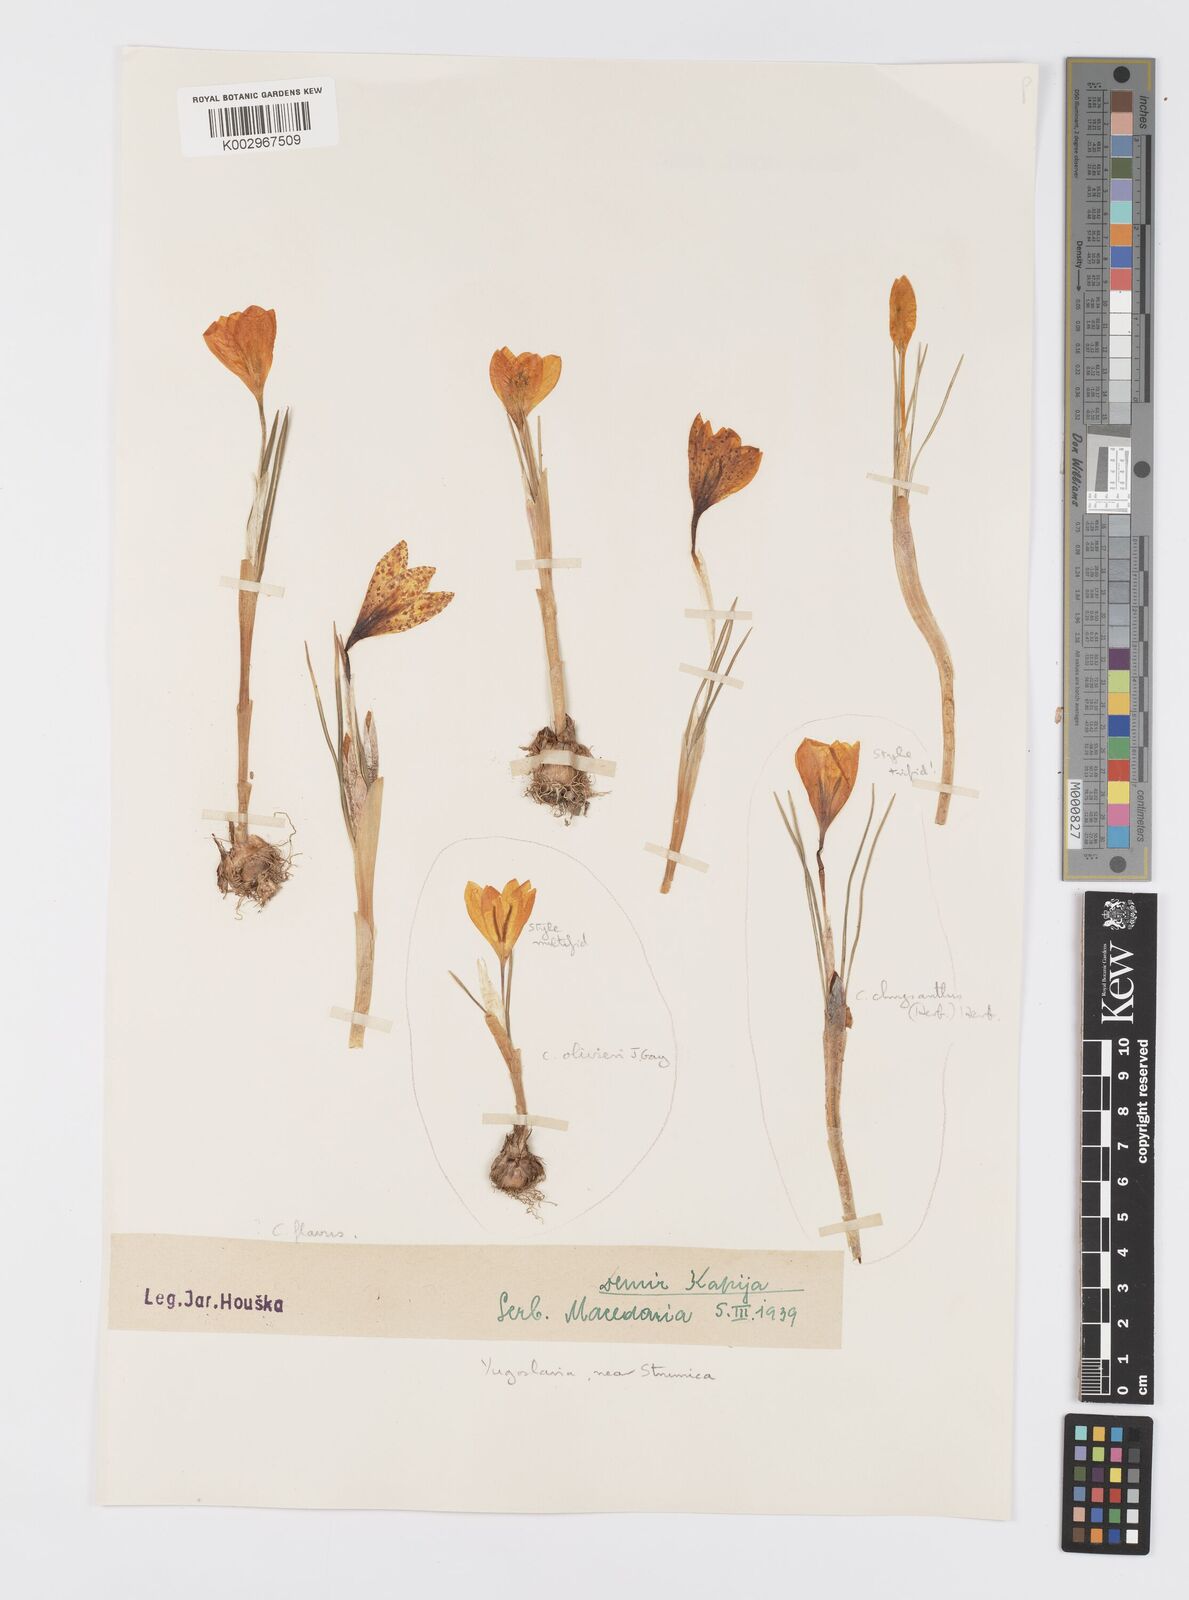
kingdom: Plantae
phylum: Tracheophyta
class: Liliopsida
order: Asparagales
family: Iridaceae
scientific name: Iridaceae
